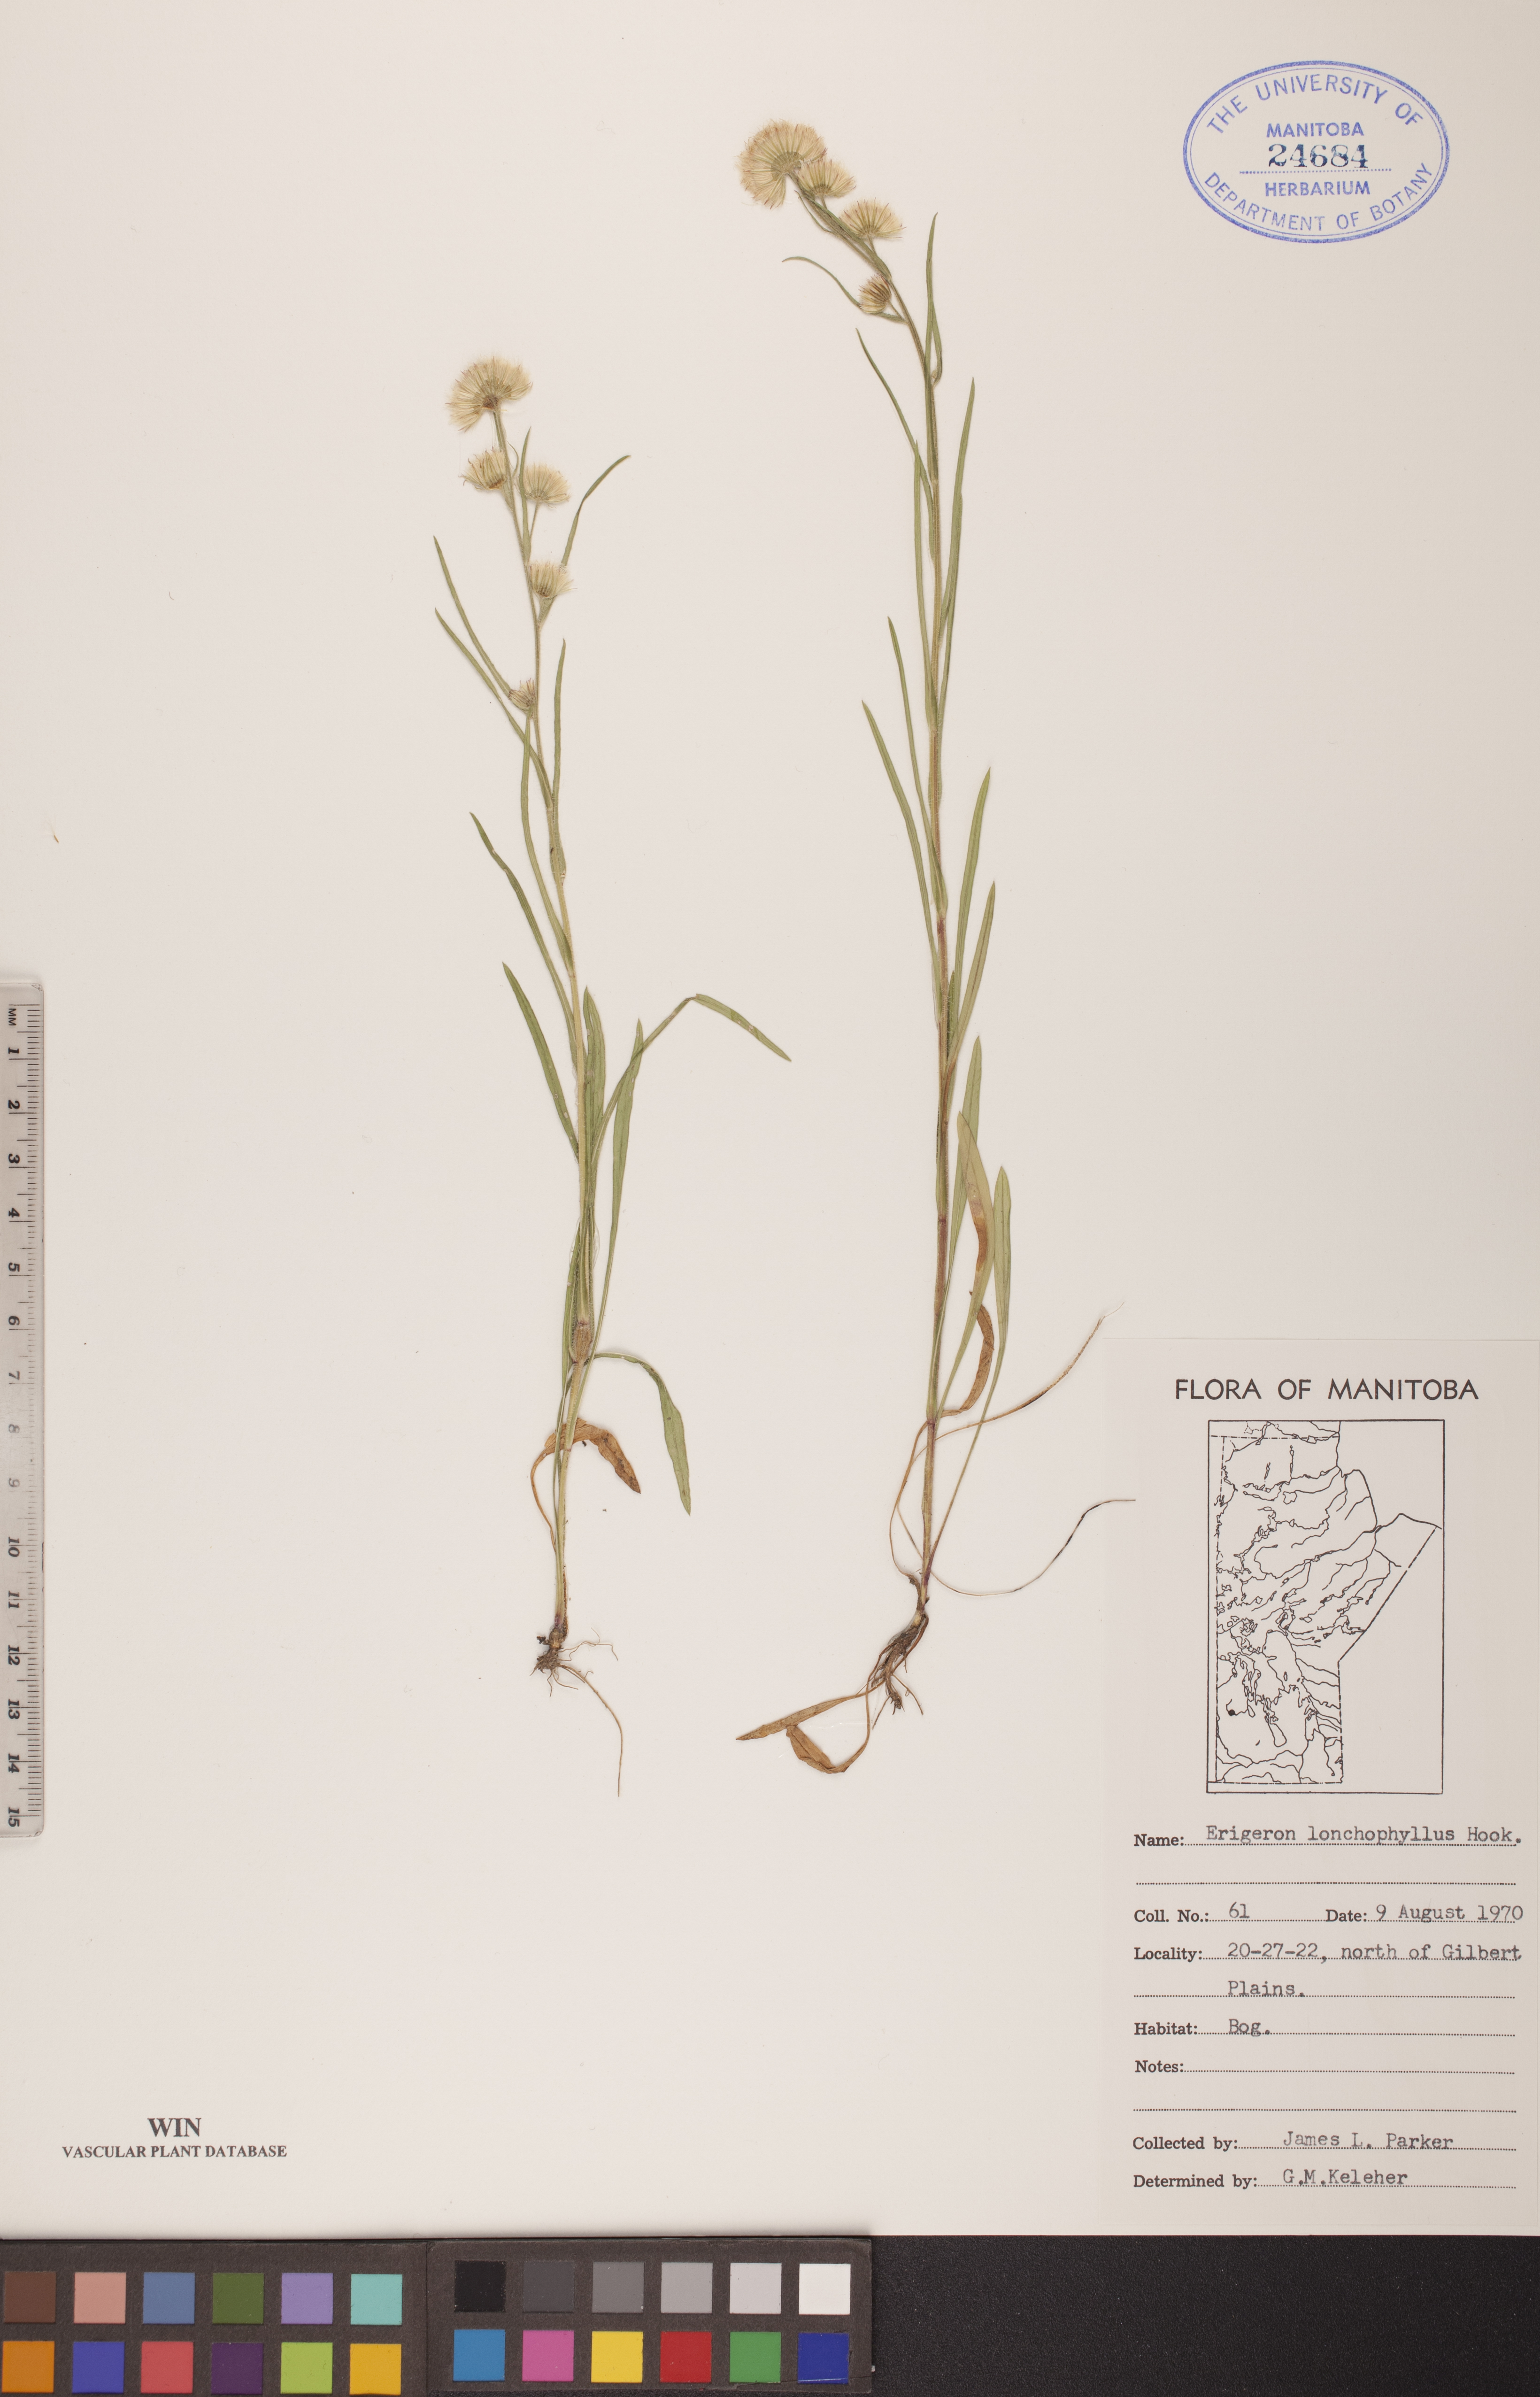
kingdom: Plantae
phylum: Tracheophyta
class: Magnoliopsida
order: Asterales
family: Asteraceae
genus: Erigeron
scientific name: Erigeron lonchophyllus
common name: Short-ray fleabane
